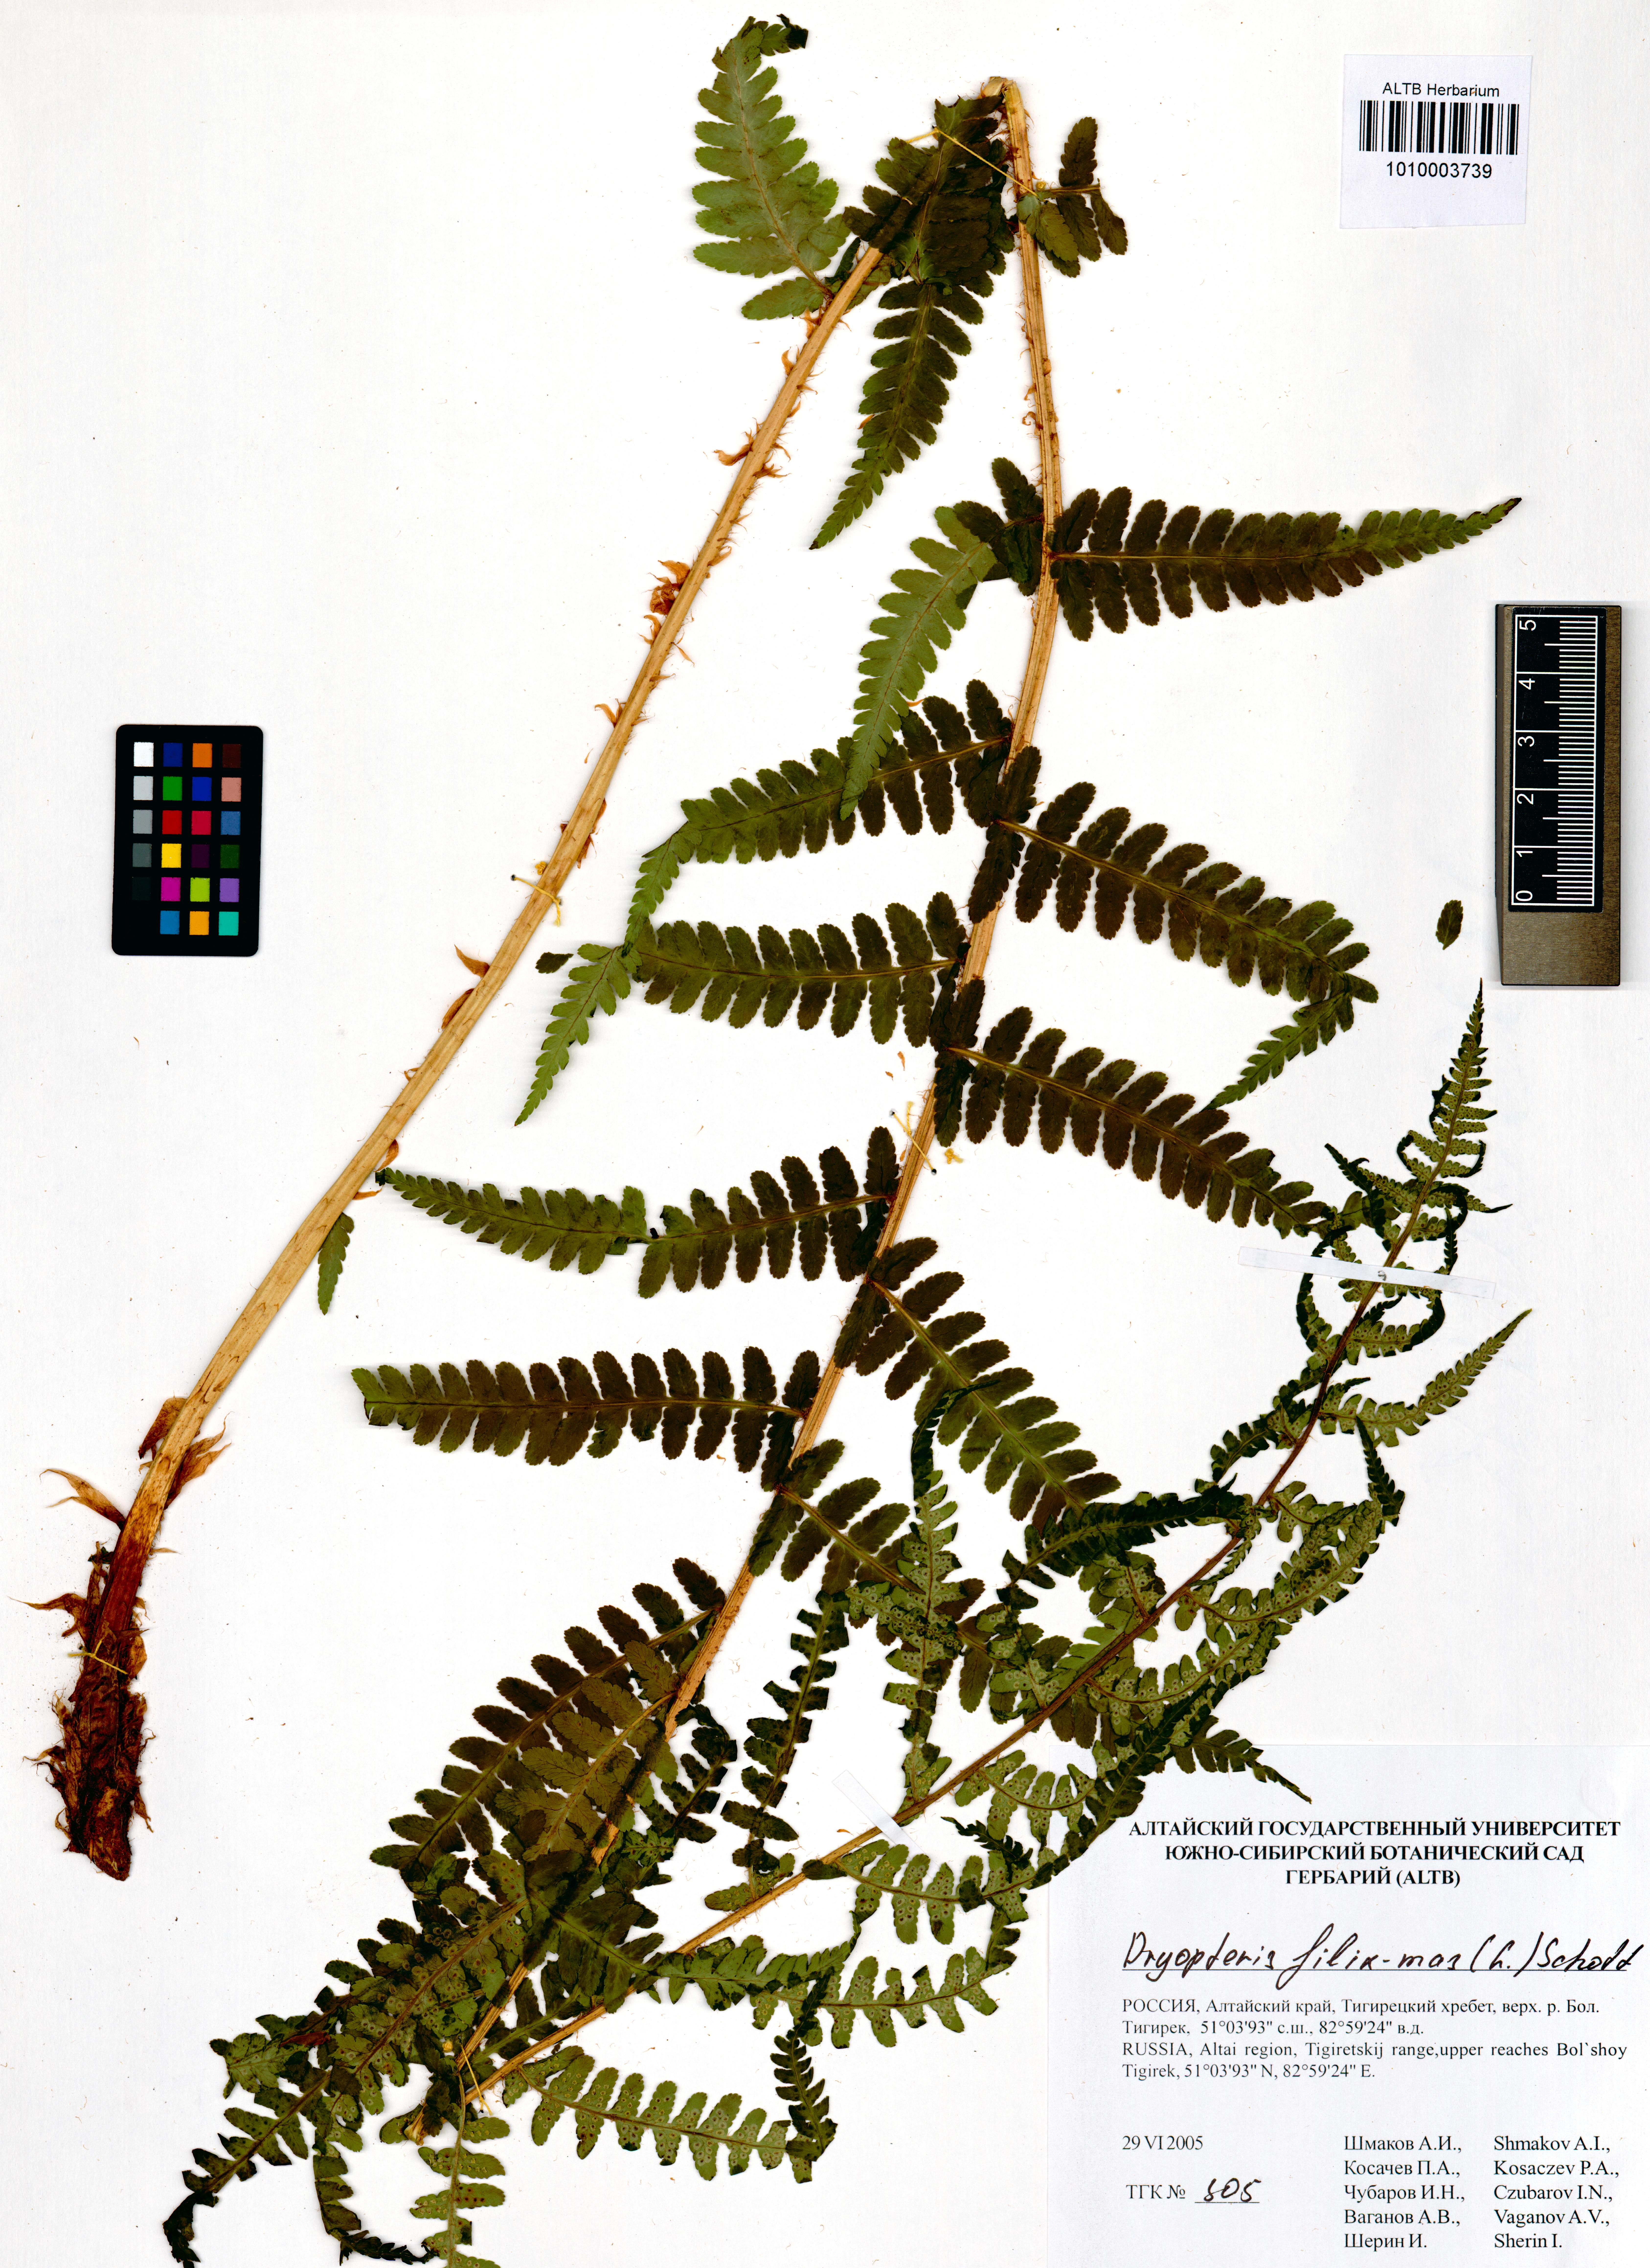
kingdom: Plantae
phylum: Tracheophyta
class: Polypodiopsida
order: Polypodiales
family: Dryopteridaceae
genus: Dryopteris
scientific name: Dryopteris filix-mas
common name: Male fern
